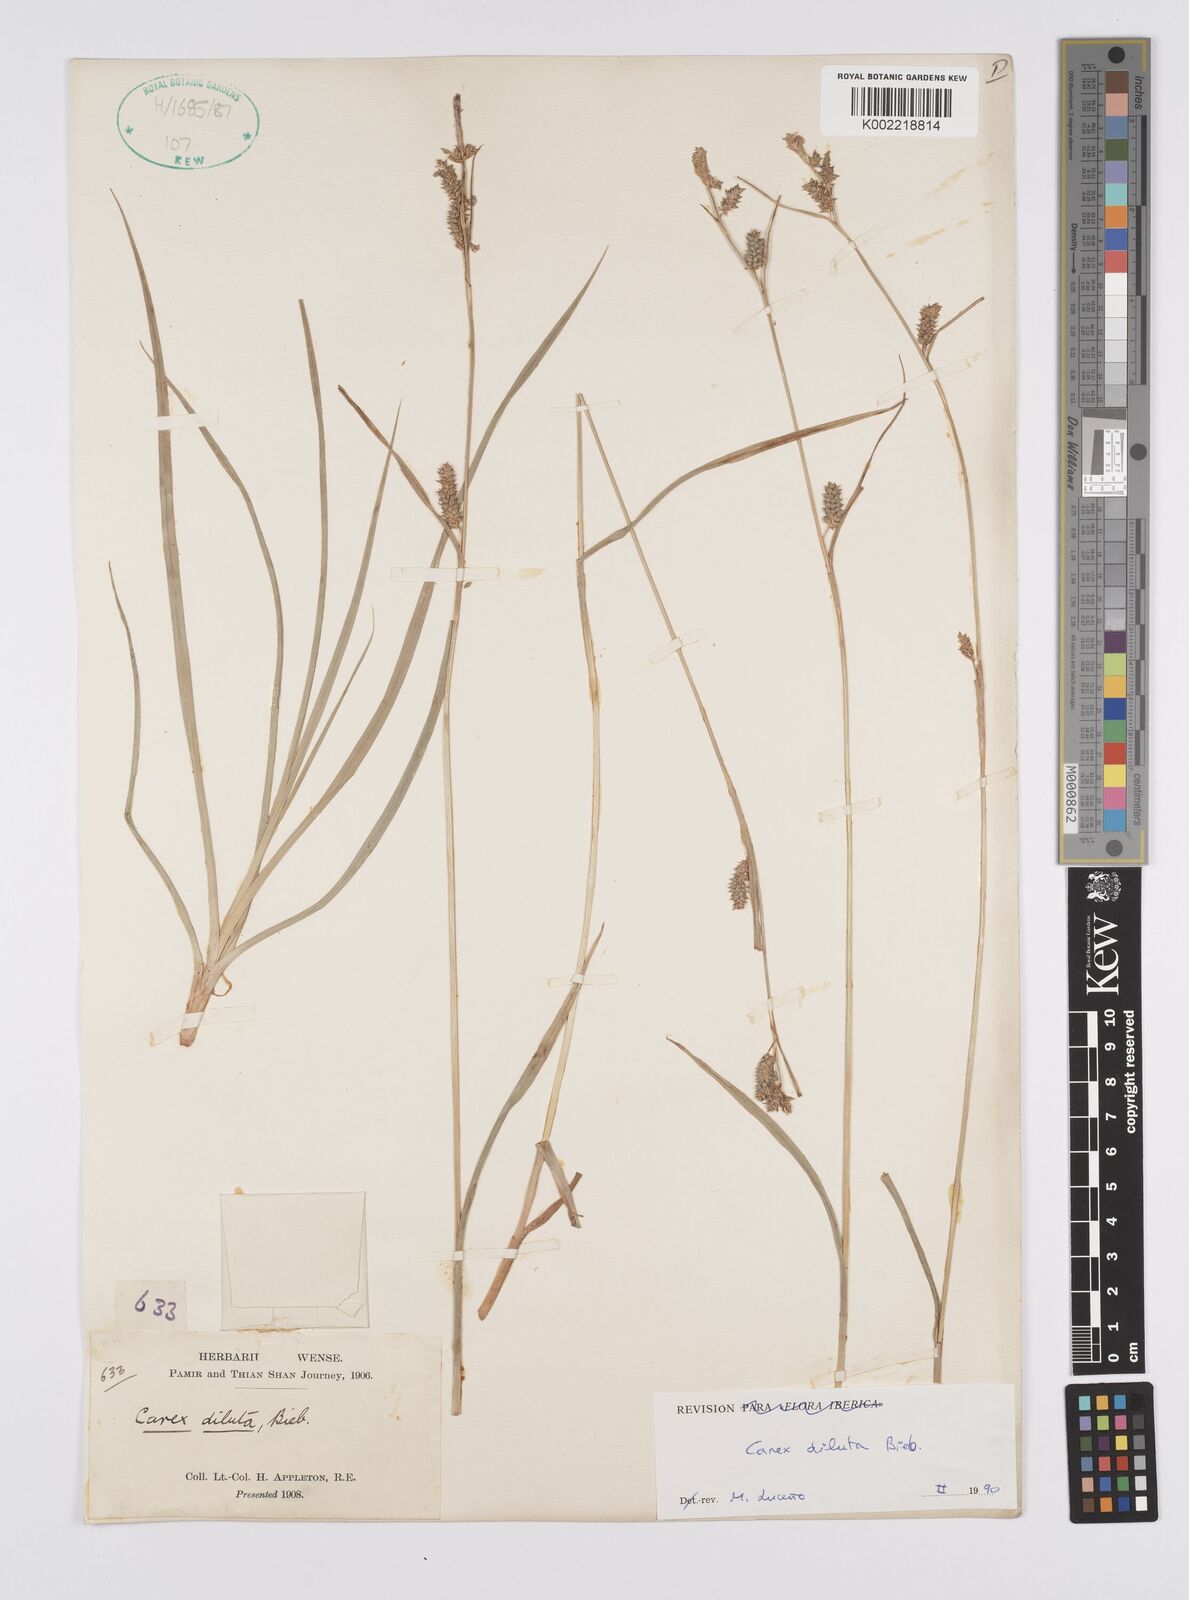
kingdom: Plantae
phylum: Tracheophyta
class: Liliopsida
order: Poales
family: Cyperaceae
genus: Carex
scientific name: Carex diluta
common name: Sedge
